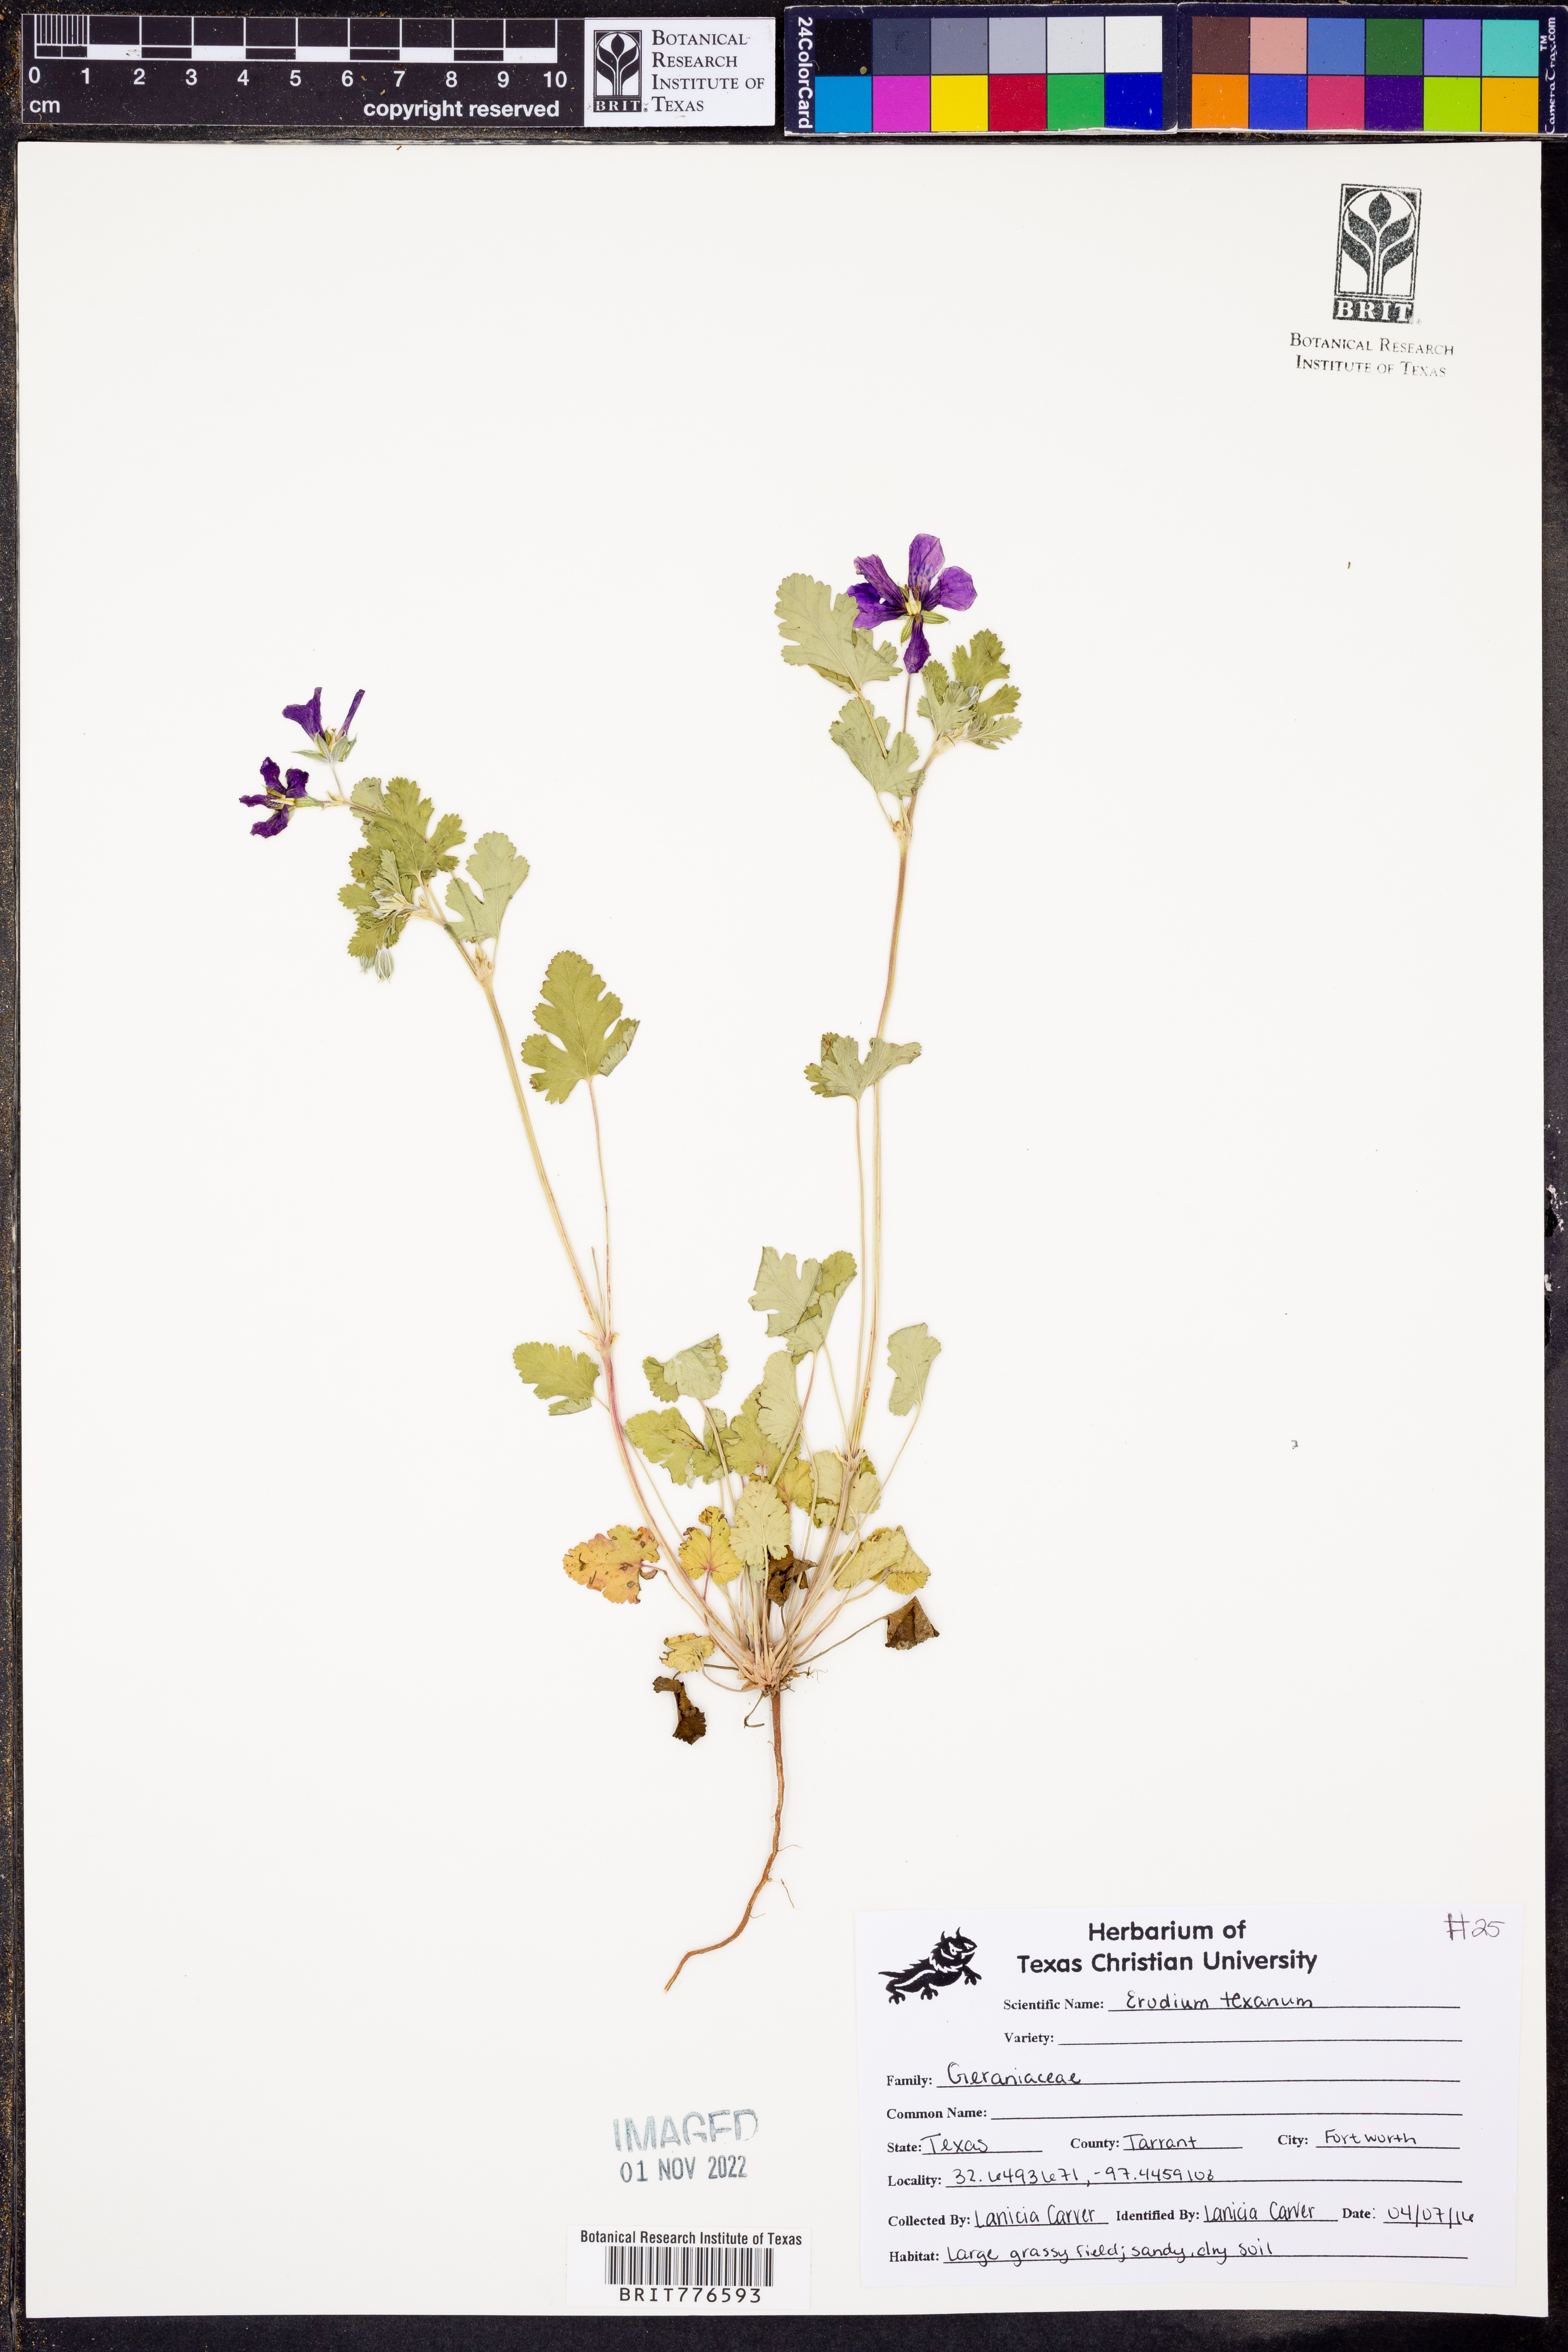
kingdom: Plantae
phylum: Tracheophyta
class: Magnoliopsida
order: Geraniales
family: Geraniaceae
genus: Erodium
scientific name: Erodium texanum
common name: Texas stork's-bill
